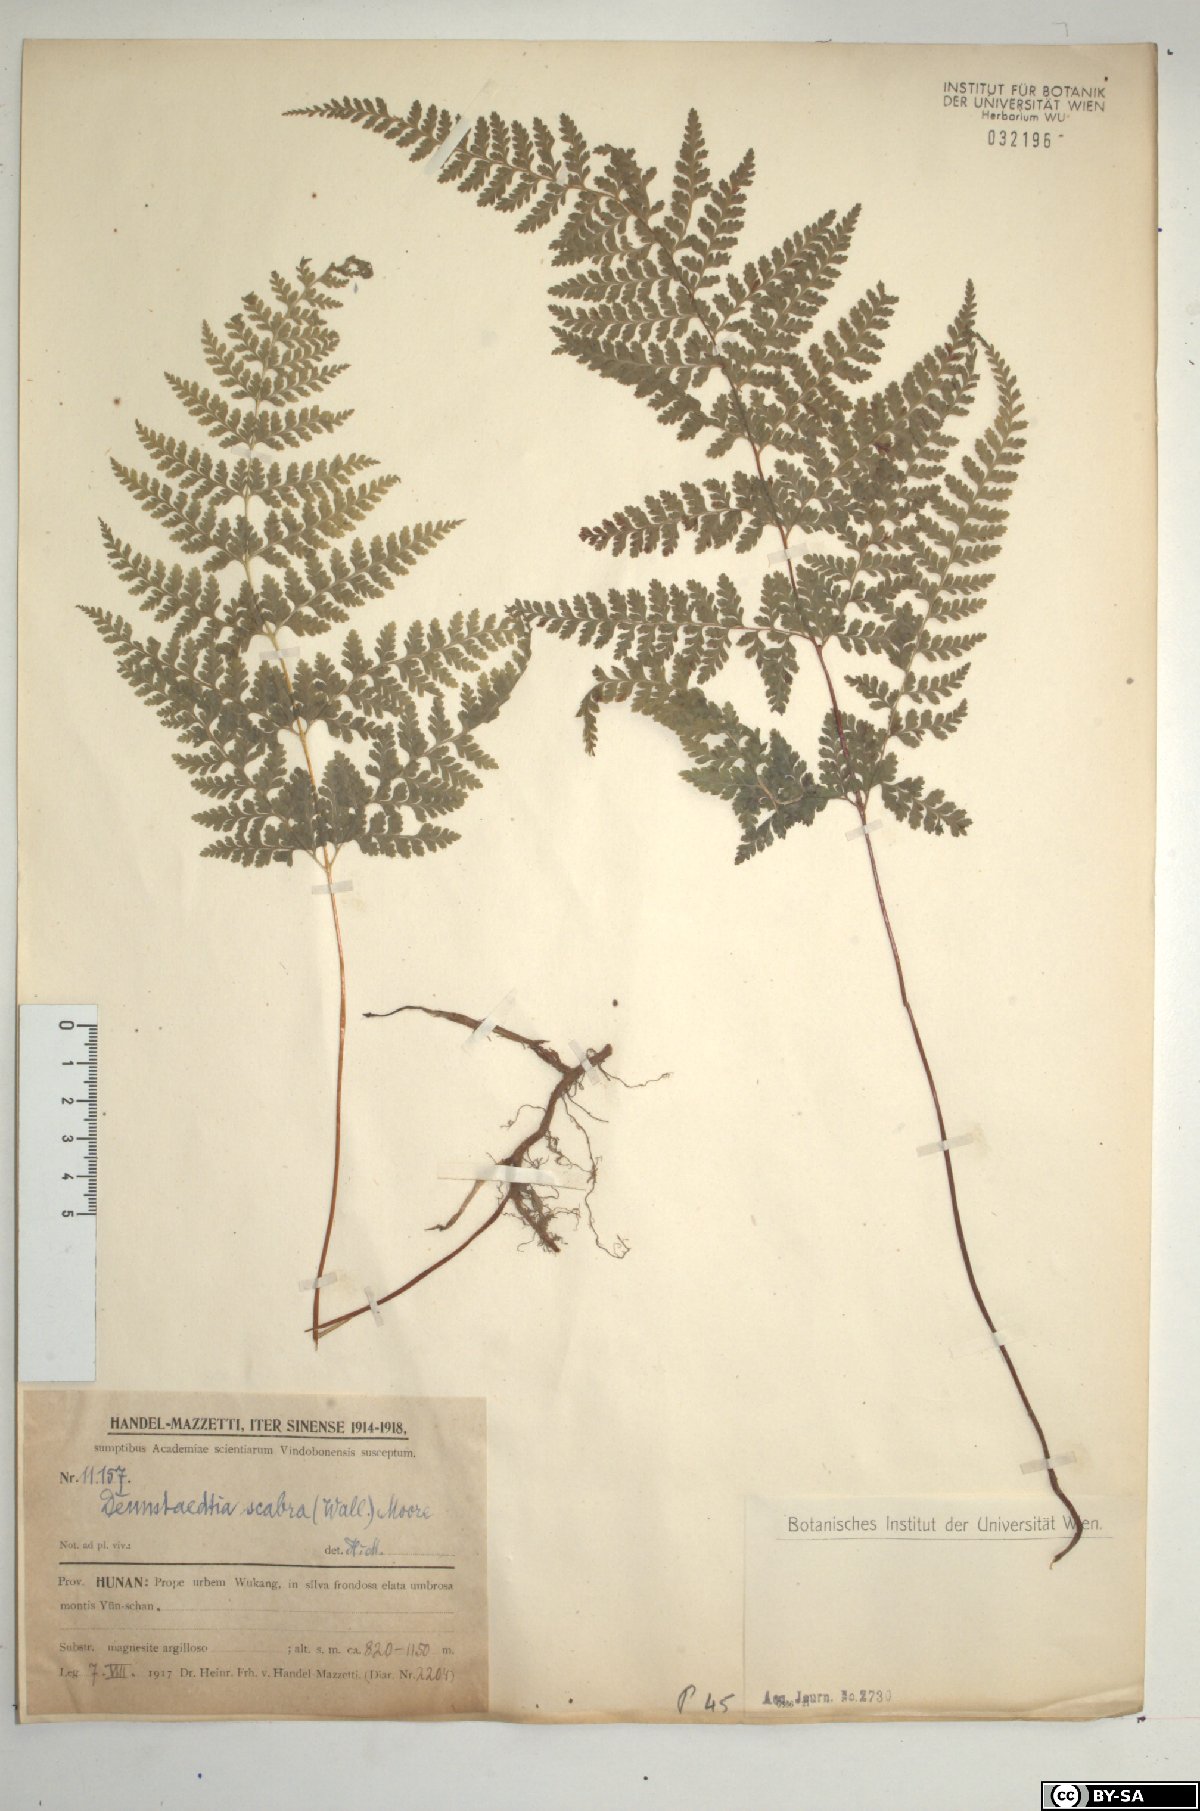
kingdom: Plantae
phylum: Tracheophyta
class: Polypodiopsida
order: Polypodiales
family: Dennstaedtiaceae
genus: Sitobolium
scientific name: Sitobolium zeylanicum
